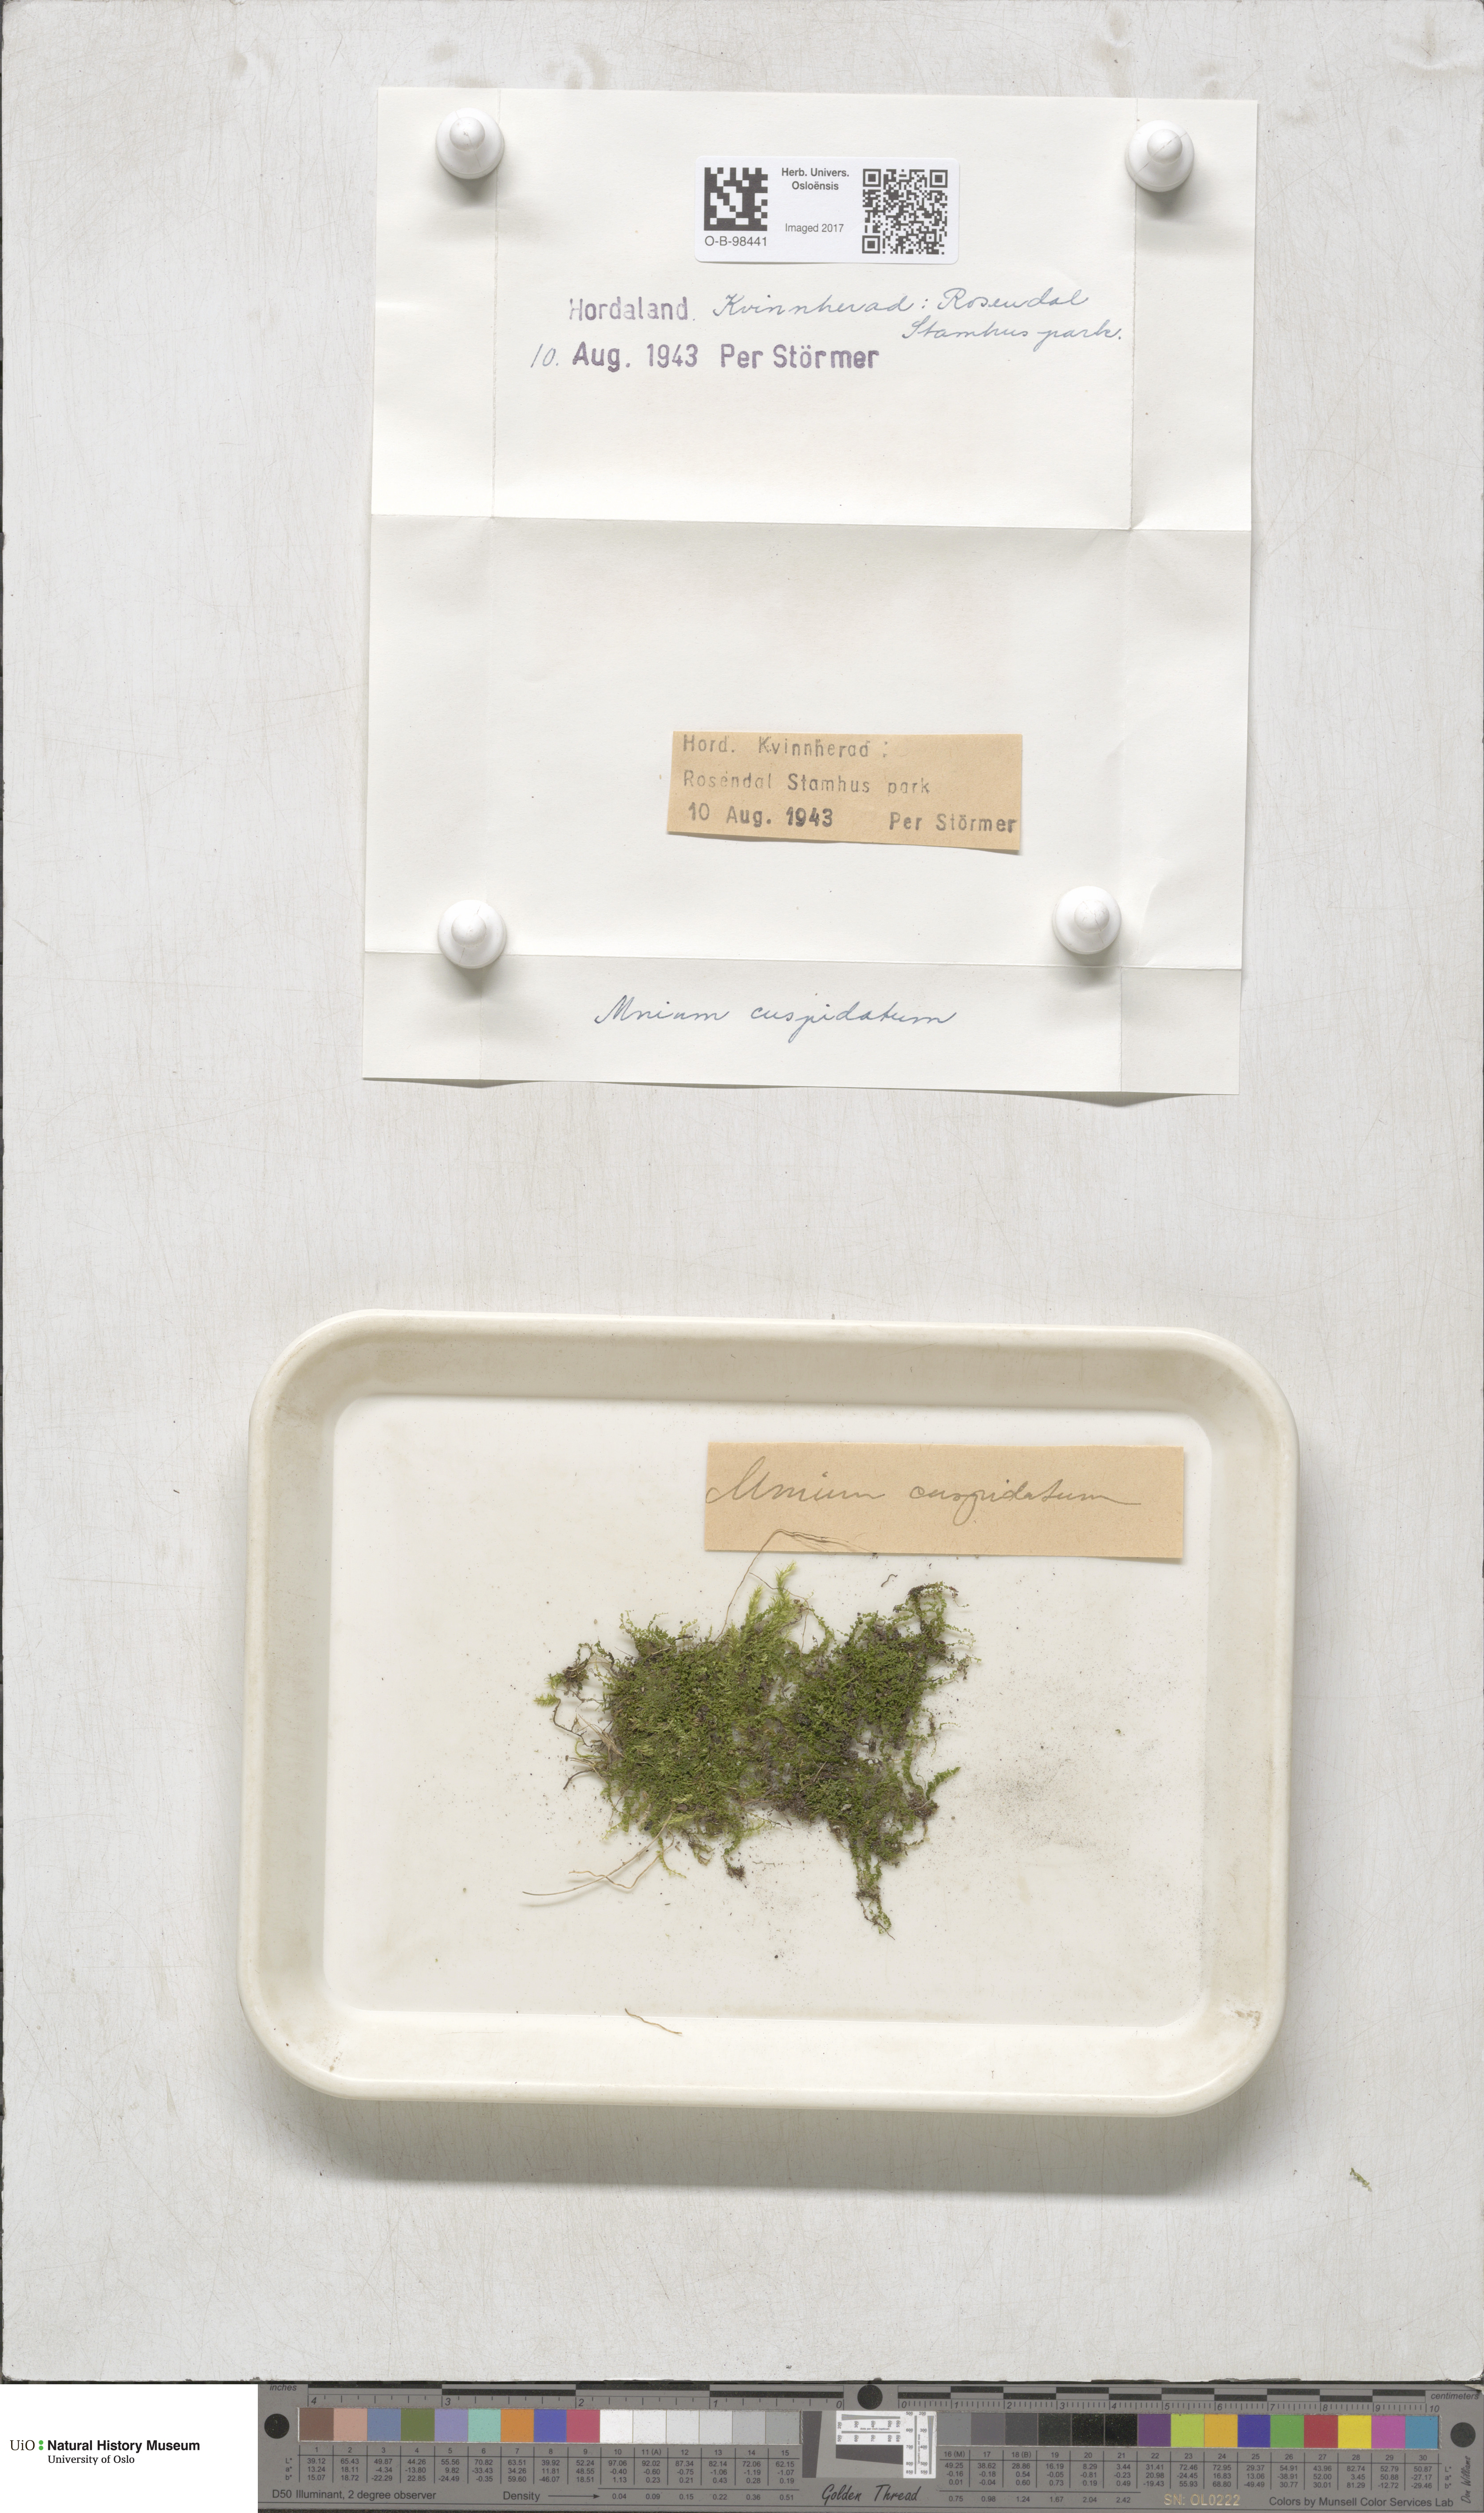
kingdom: Plantae
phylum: Bryophyta
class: Bryopsida
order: Bryales
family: Mniaceae
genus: Plagiomnium
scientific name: Plagiomnium cuspidatum
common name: Woodsy leafy moss
